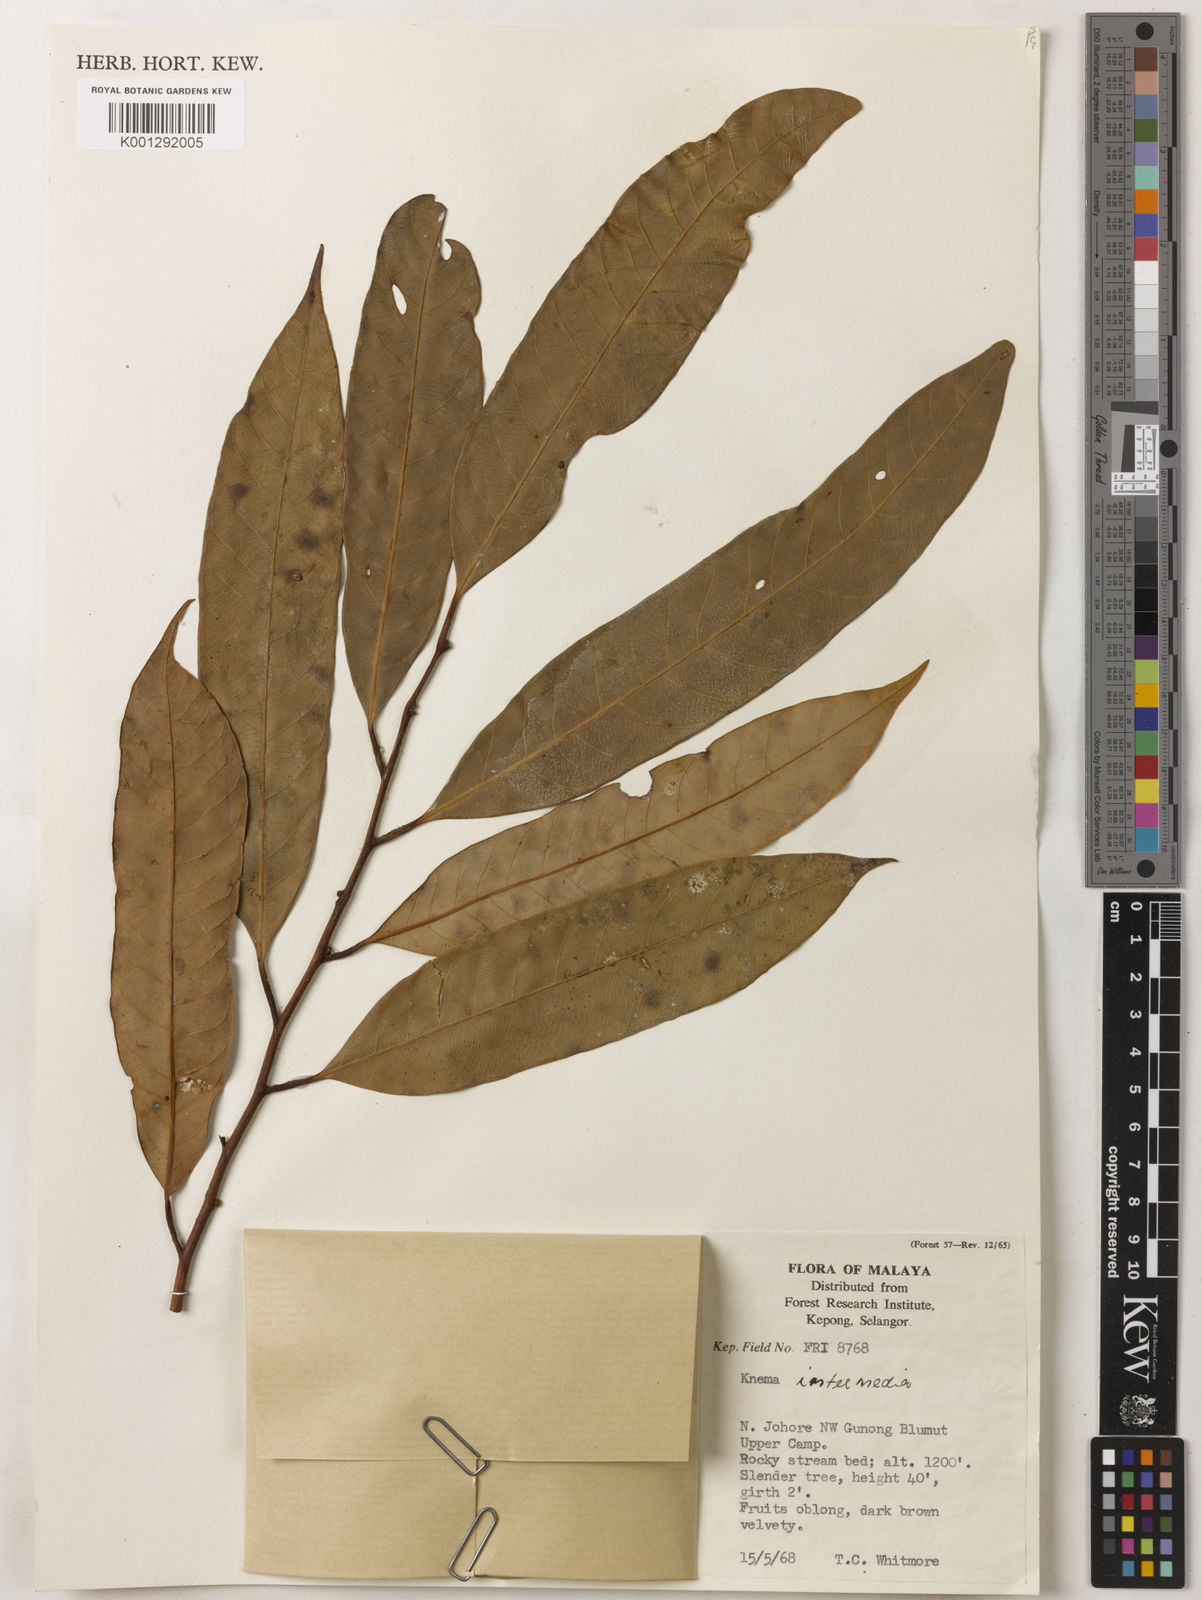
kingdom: Plantae
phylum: Tracheophyta
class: Magnoliopsida
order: Magnoliales
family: Myristicaceae
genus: Knema
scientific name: Knema intermedia
